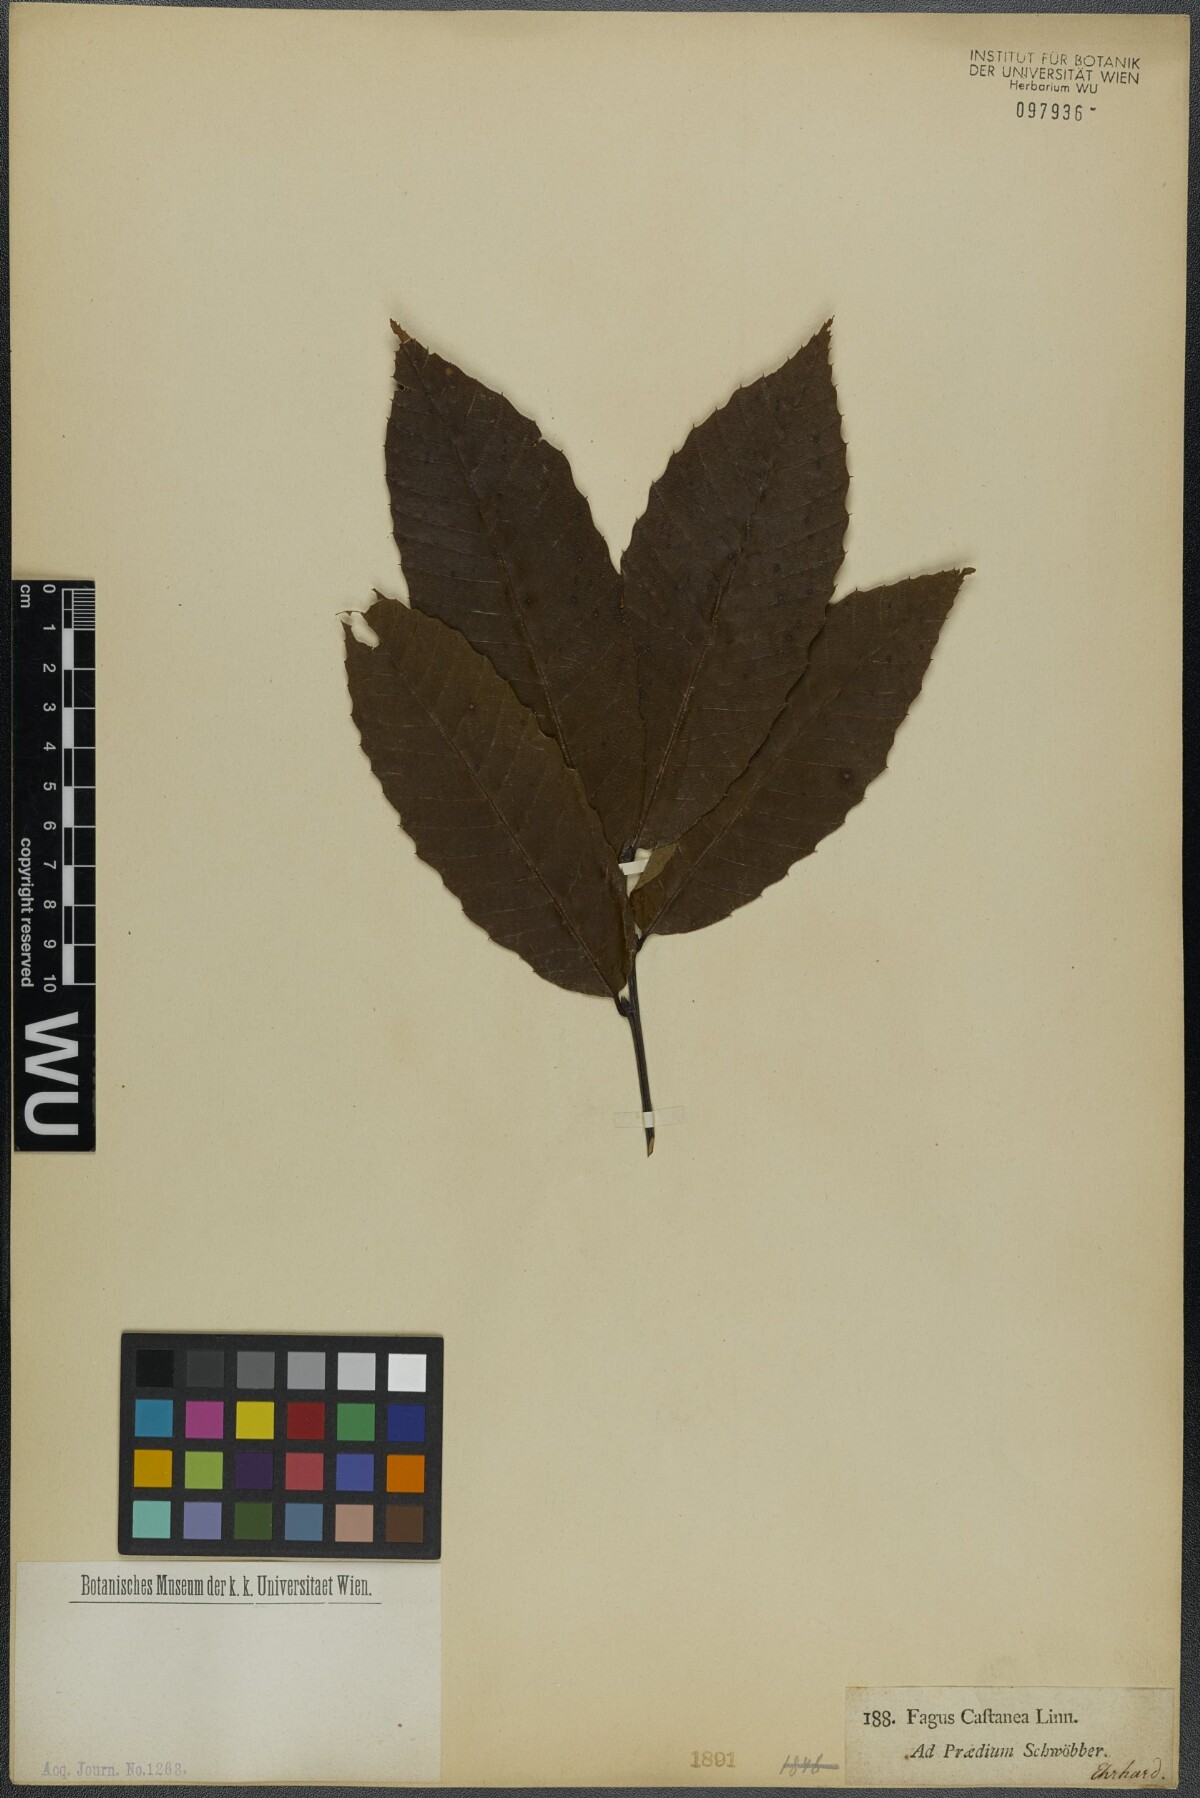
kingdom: Plantae
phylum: Tracheophyta
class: Magnoliopsida
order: Fagales
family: Fagaceae
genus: Castanea
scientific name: Castanea sativa
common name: Sweet chestnut
